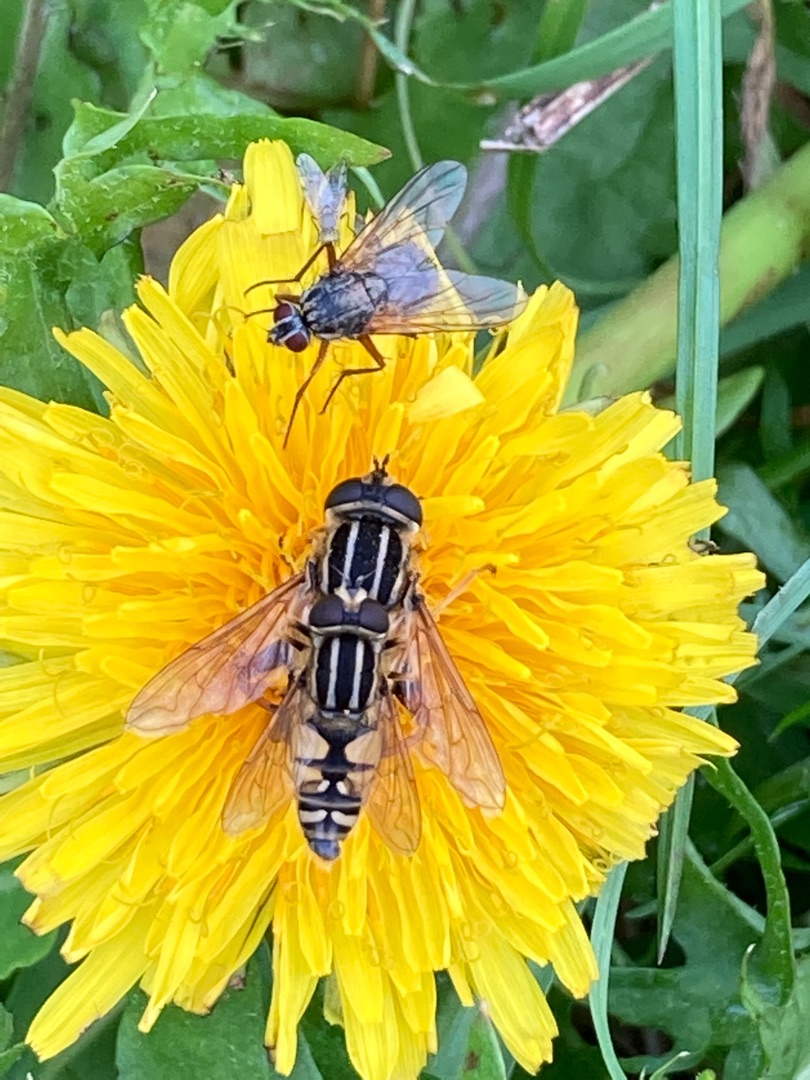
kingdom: Animalia
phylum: Arthropoda
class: Insecta
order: Diptera
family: Syrphidae
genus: Helophilus
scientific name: Helophilus pendulus
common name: Almindelig sumpsvirreflue
